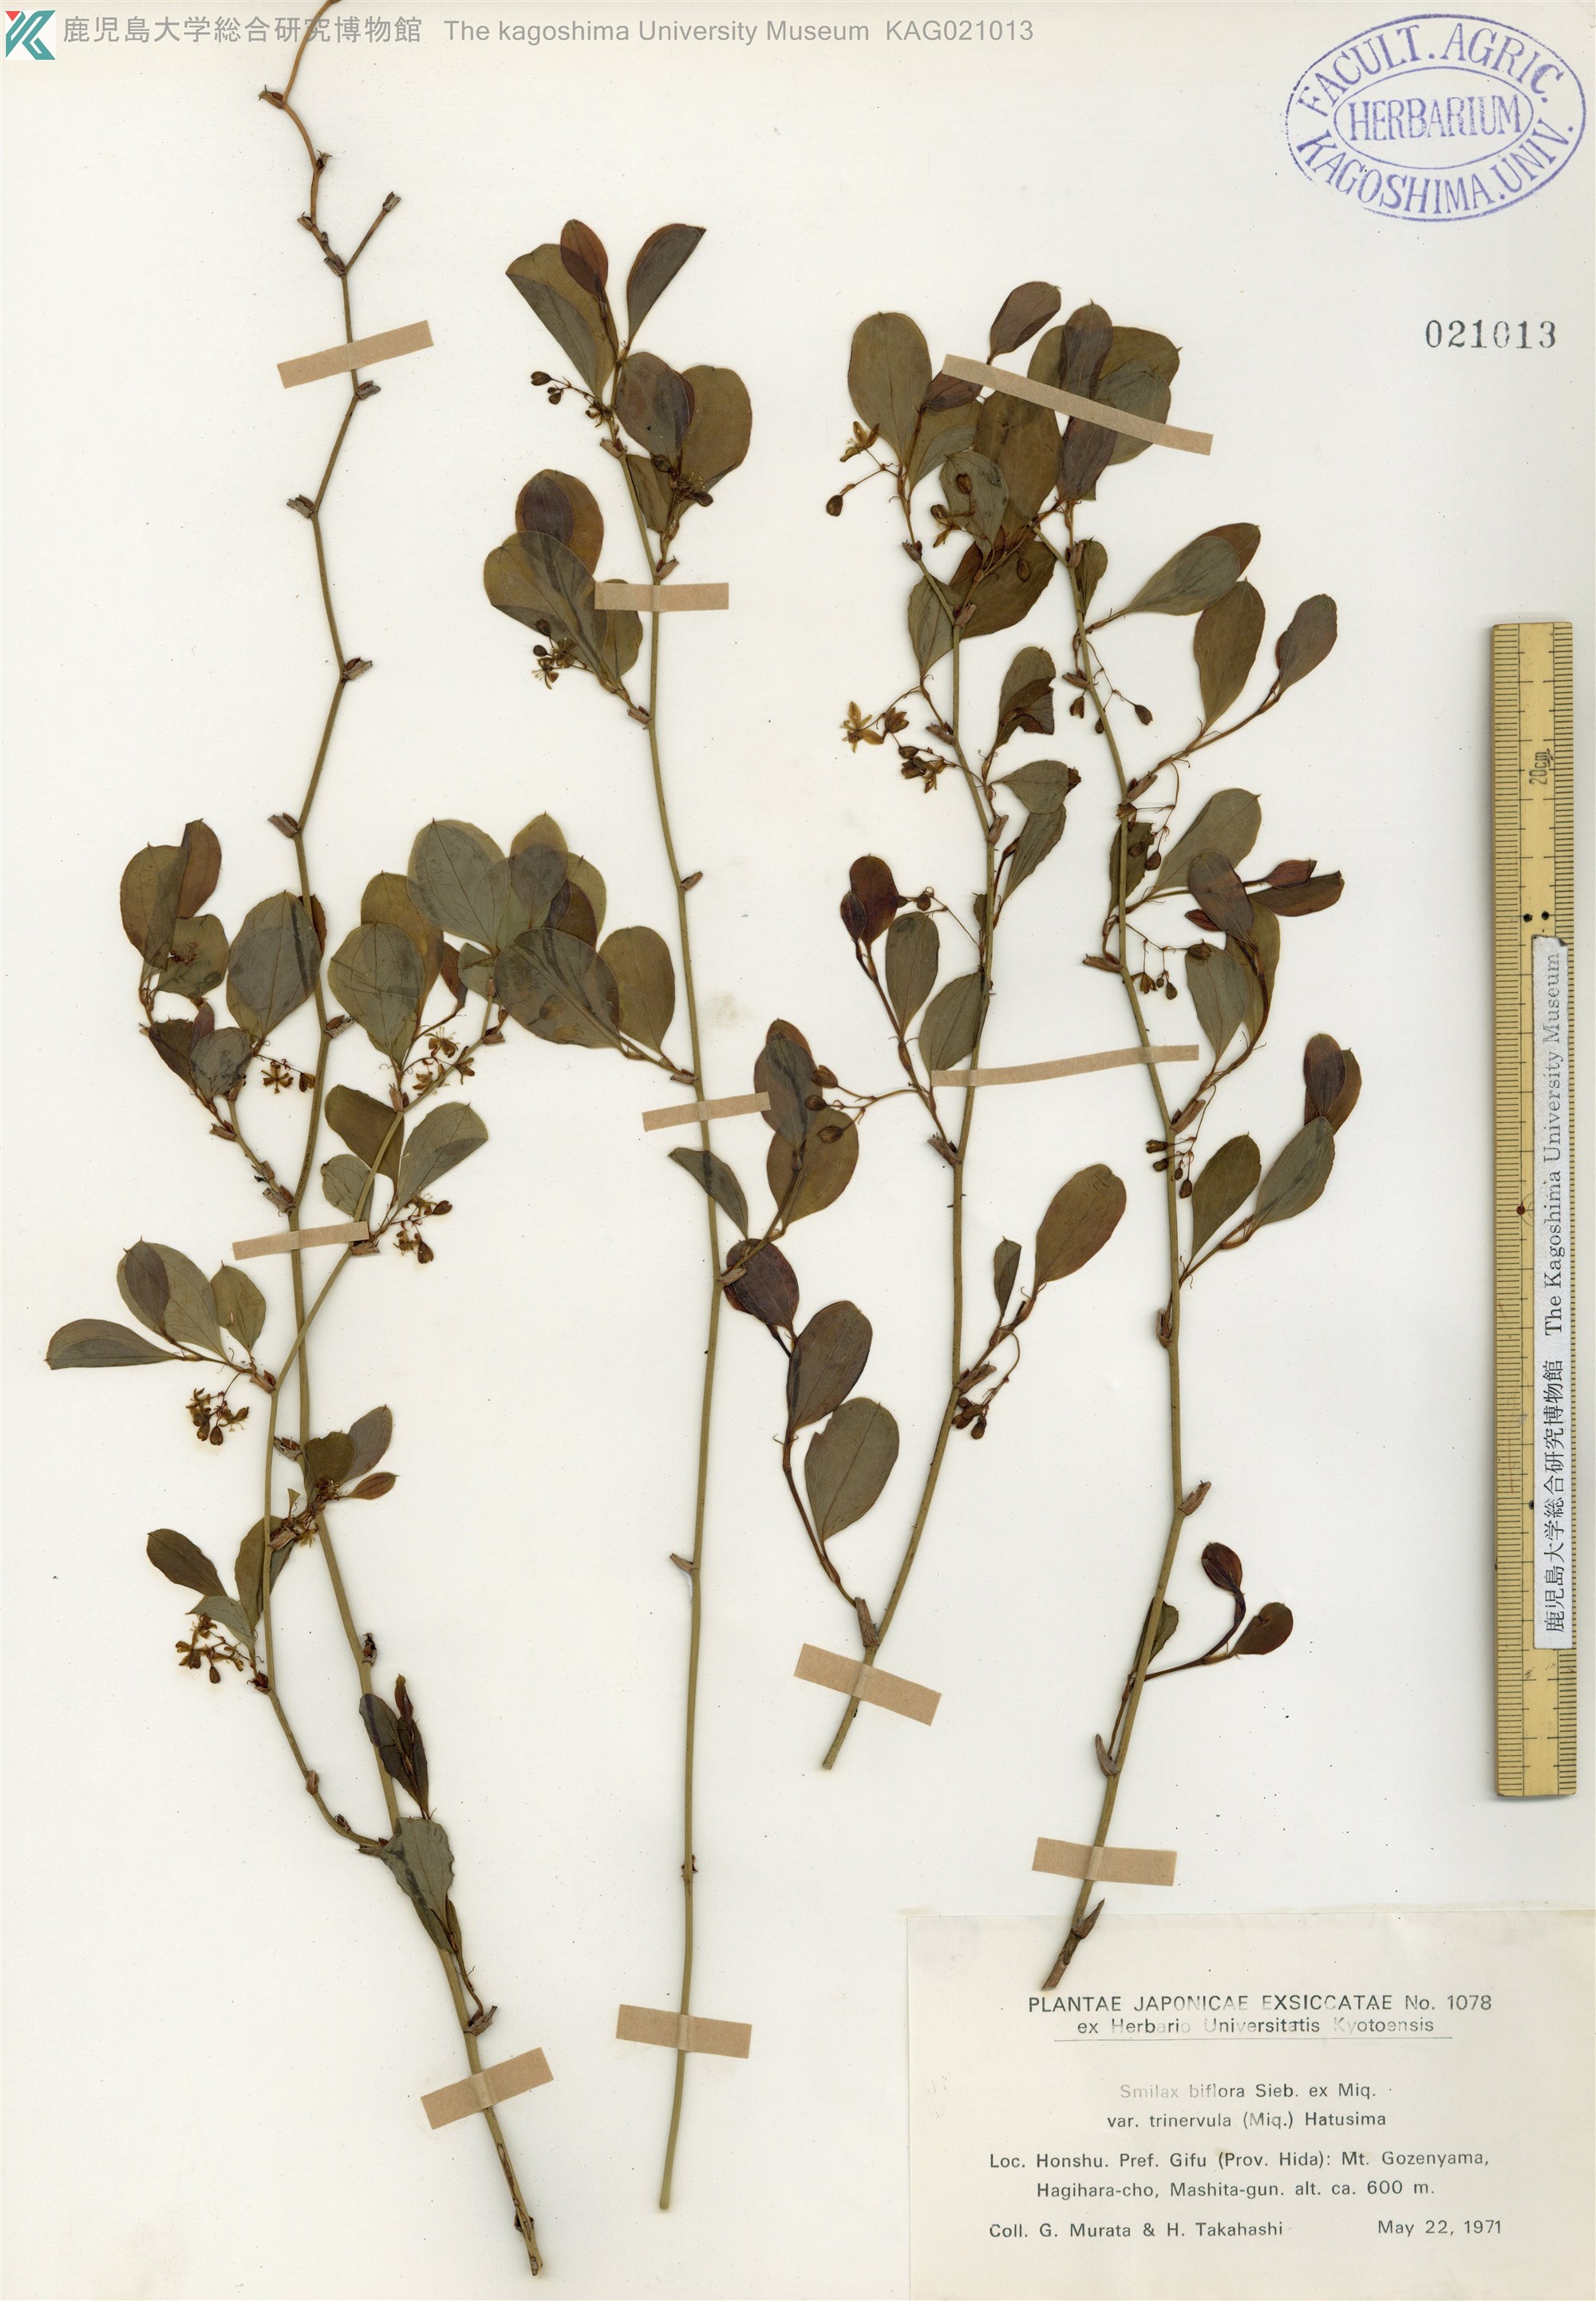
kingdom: Plantae
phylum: Tracheophyta
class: Liliopsida
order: Liliales
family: Smilacaceae
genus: Smilax
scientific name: Smilax trinervula
